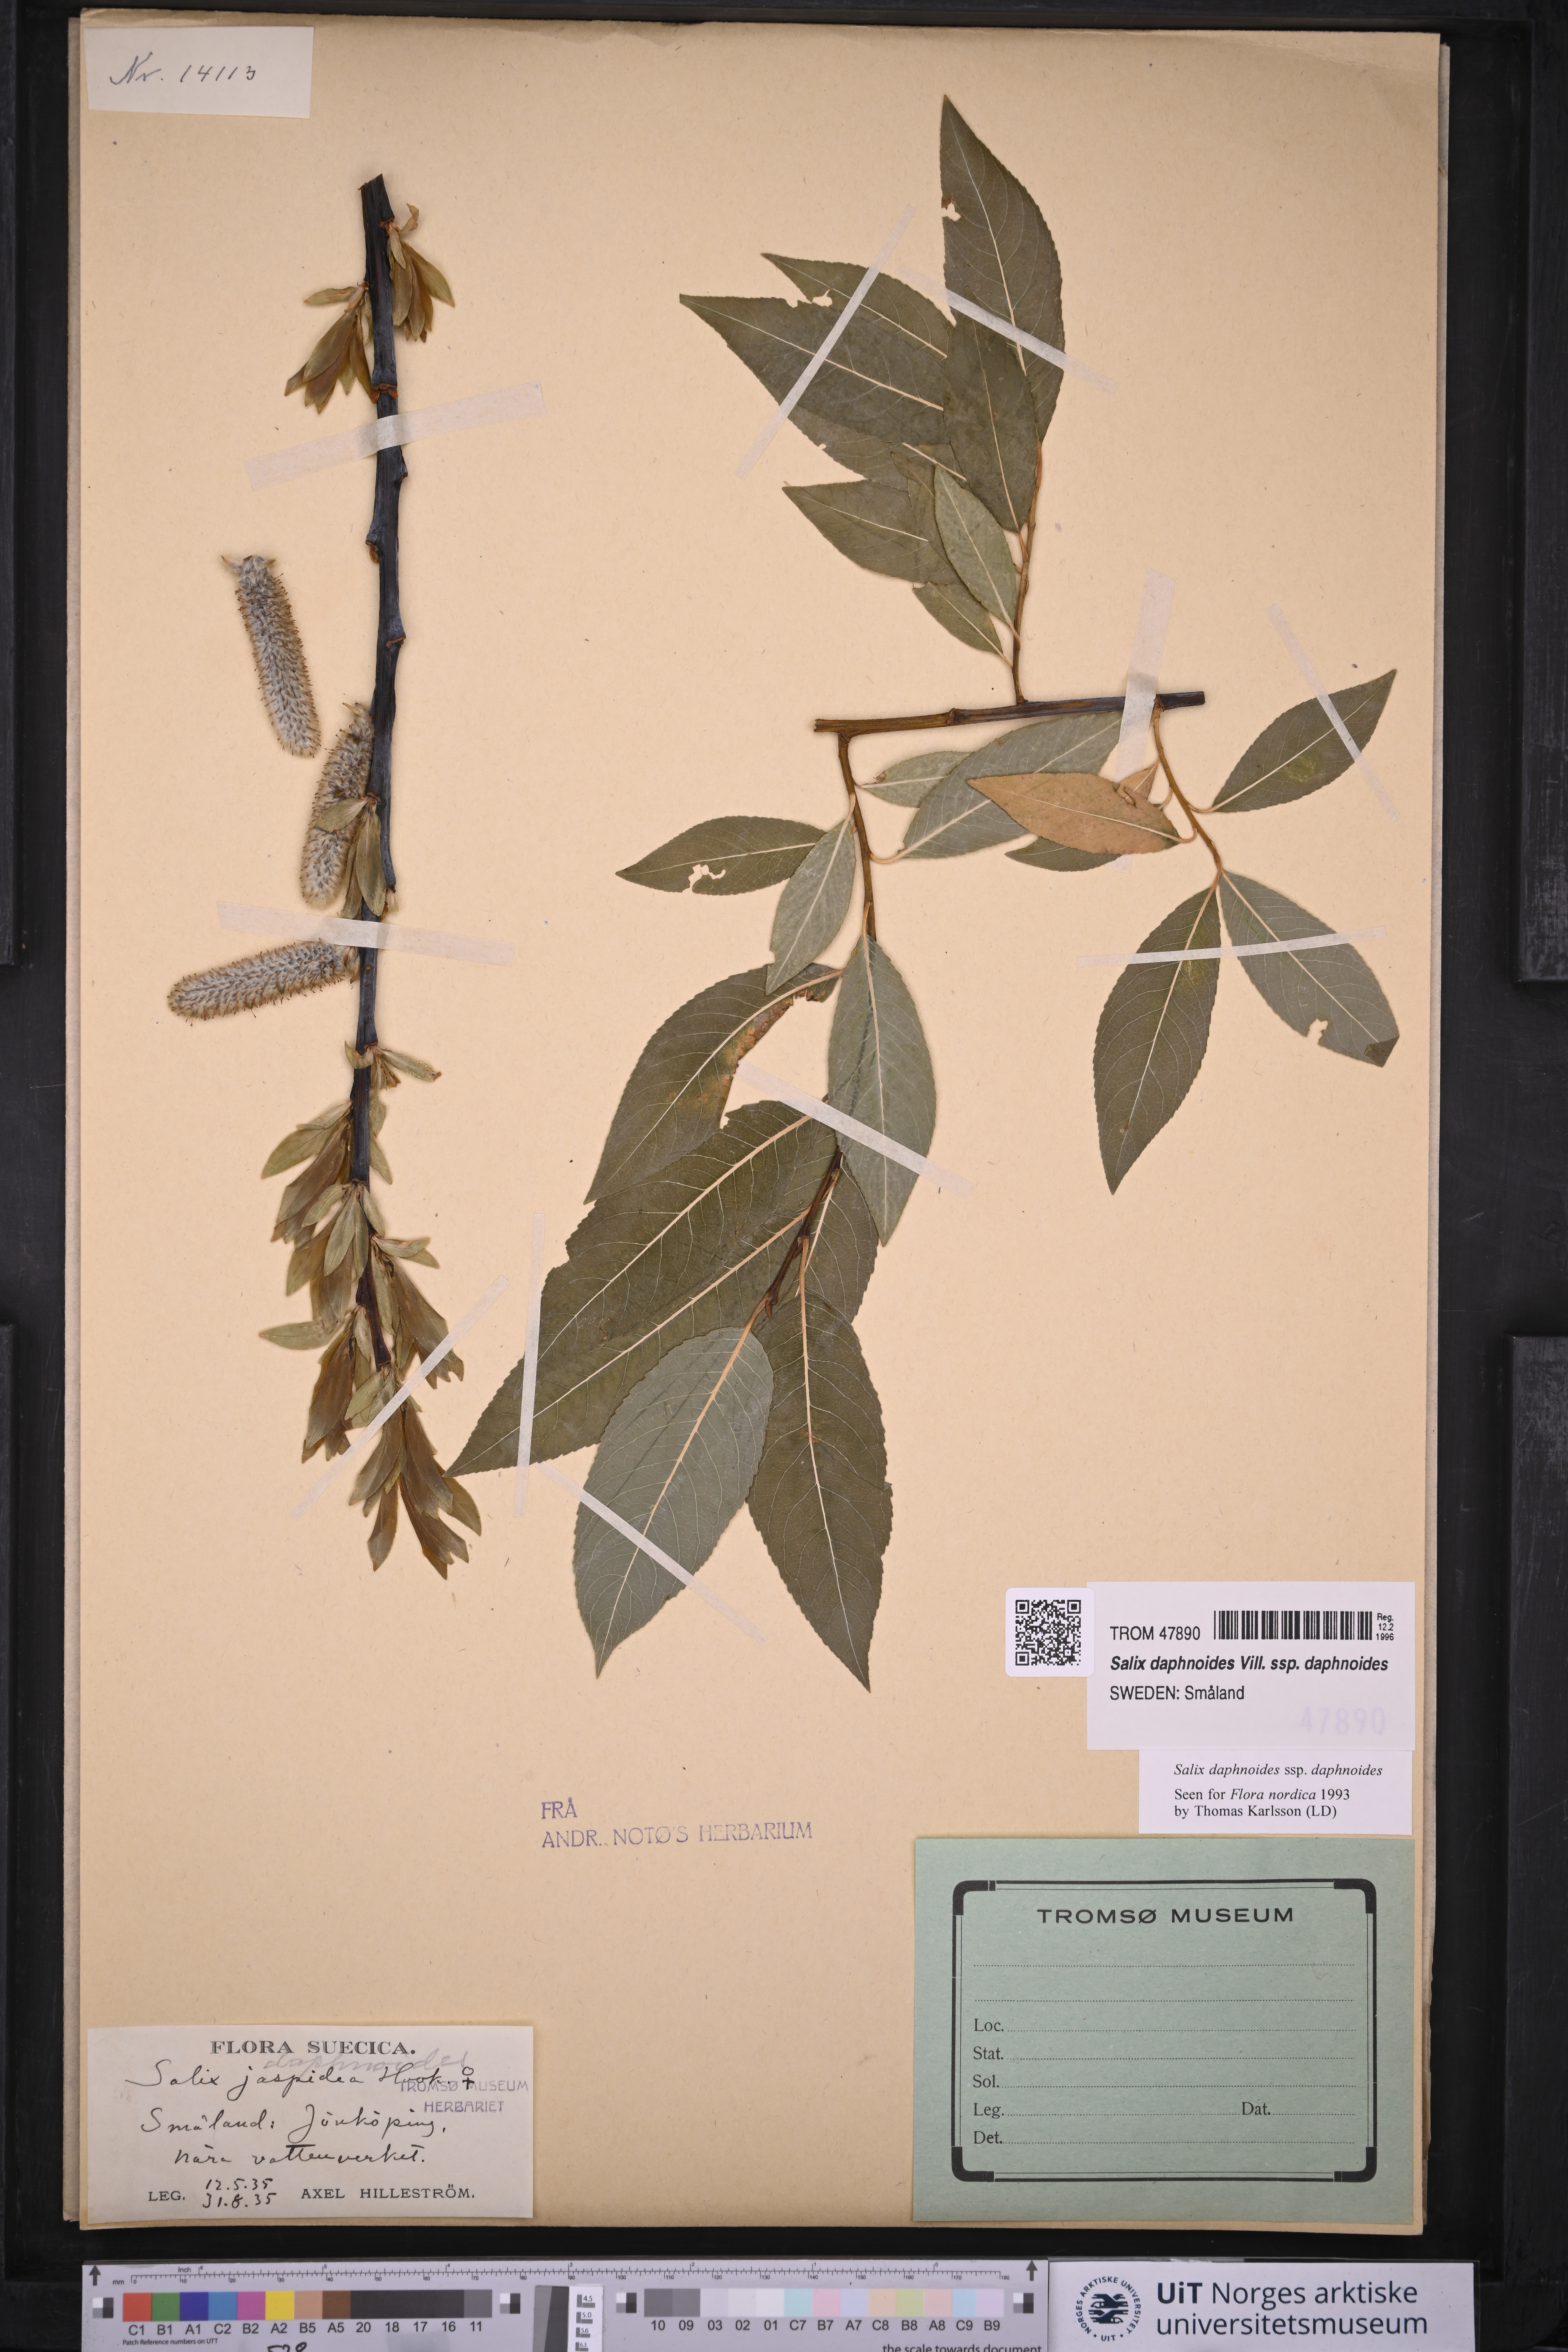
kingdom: Plantae
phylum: Tracheophyta
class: Magnoliopsida
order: Malpighiales
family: Salicaceae
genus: Salix
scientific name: Salix daphnoides
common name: European violet-willow
